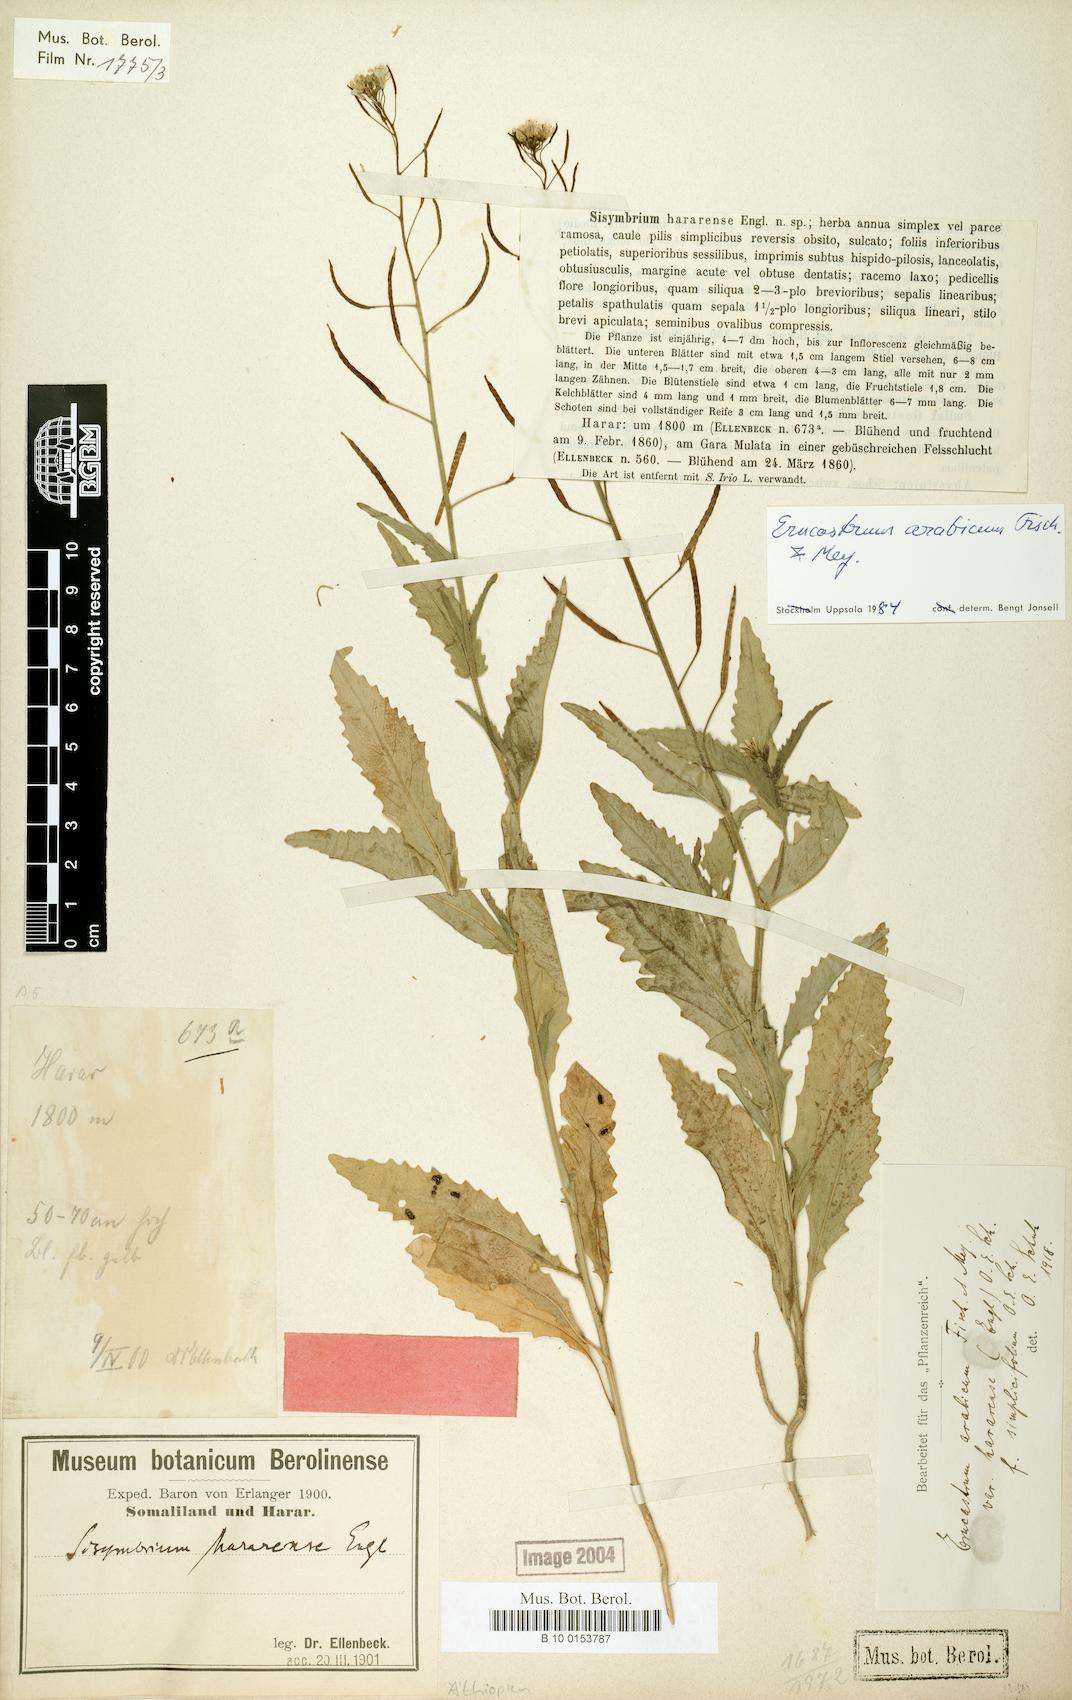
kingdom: Plantae
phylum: Tracheophyta
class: Magnoliopsida
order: Brassicales
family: Brassicaceae
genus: Erucastrum
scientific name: Erucastrum arabicum
